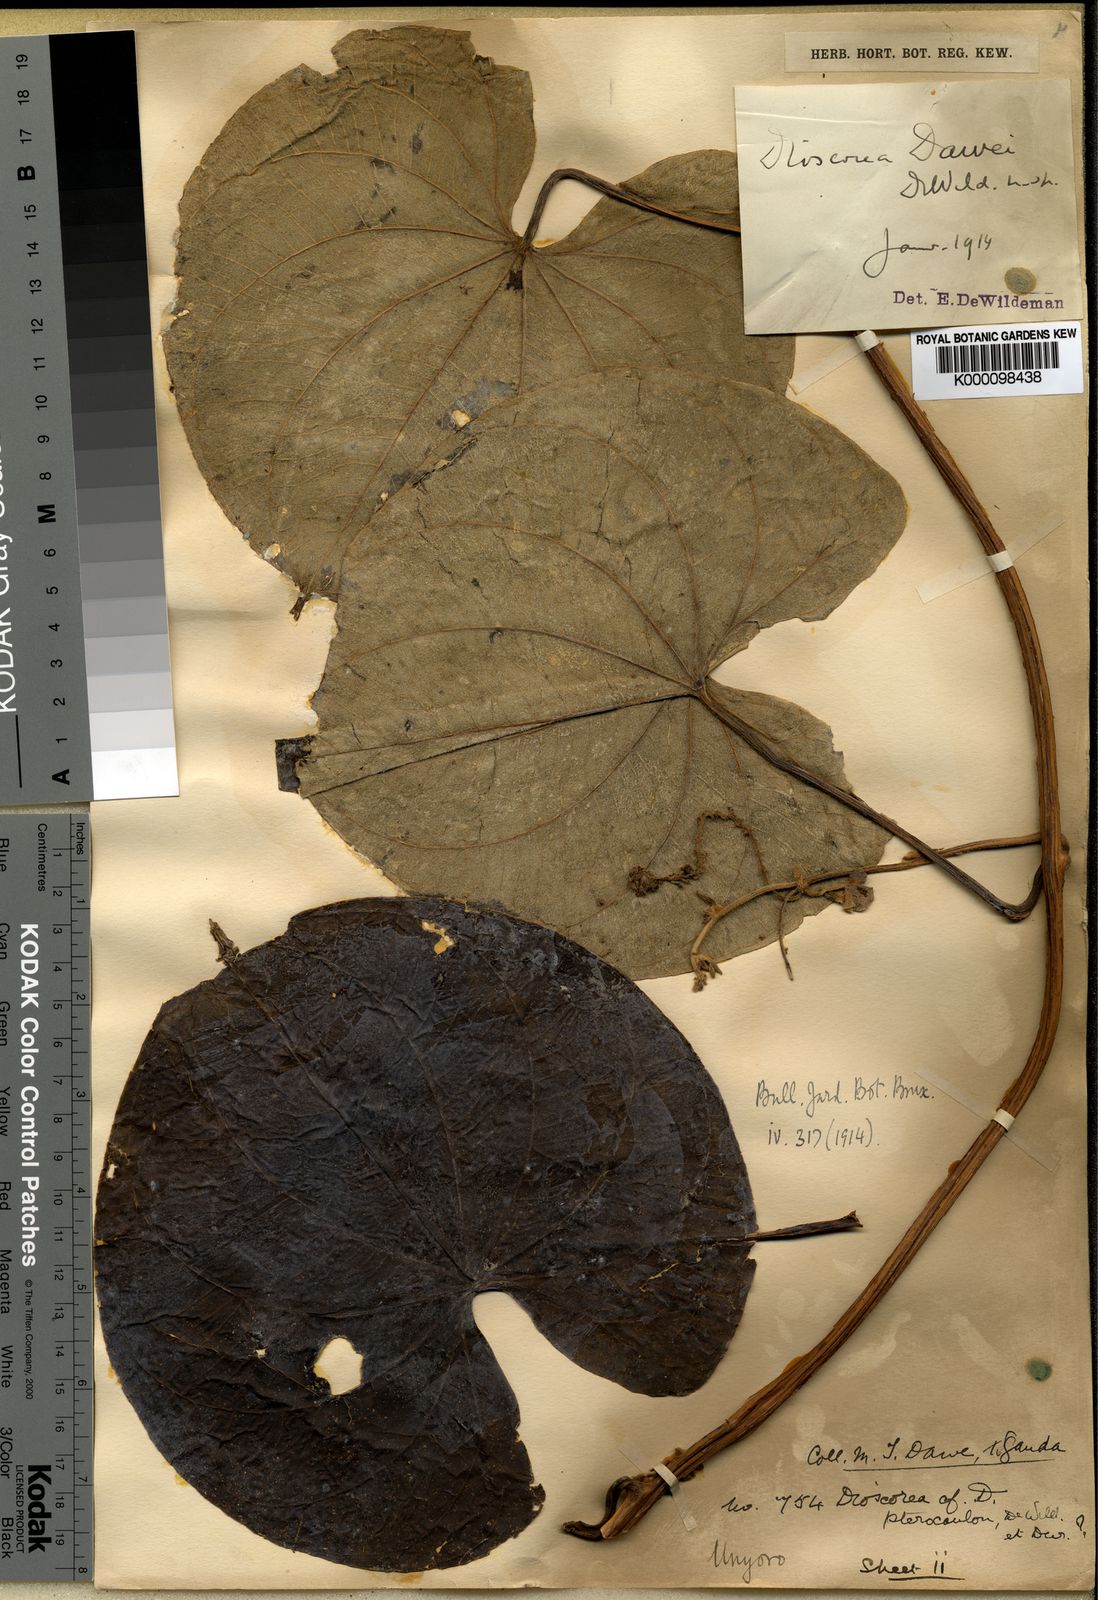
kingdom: Plantae
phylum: Tracheophyta
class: Liliopsida
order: Dioscoreales
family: Dioscoreaceae
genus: Dioscorea
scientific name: Dioscorea preussii
